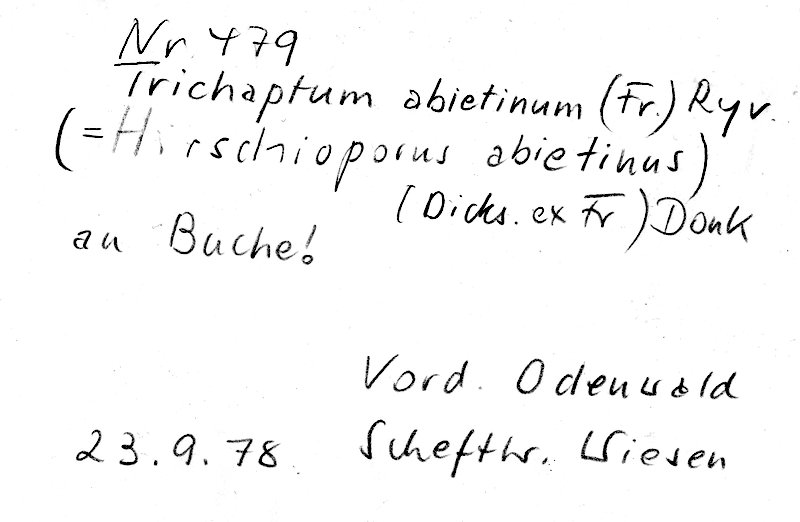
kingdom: Plantae
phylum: Tracheophyta
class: Magnoliopsida
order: Fagales
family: Fagaceae
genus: Fagus
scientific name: Fagus sylvatica
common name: Beech
